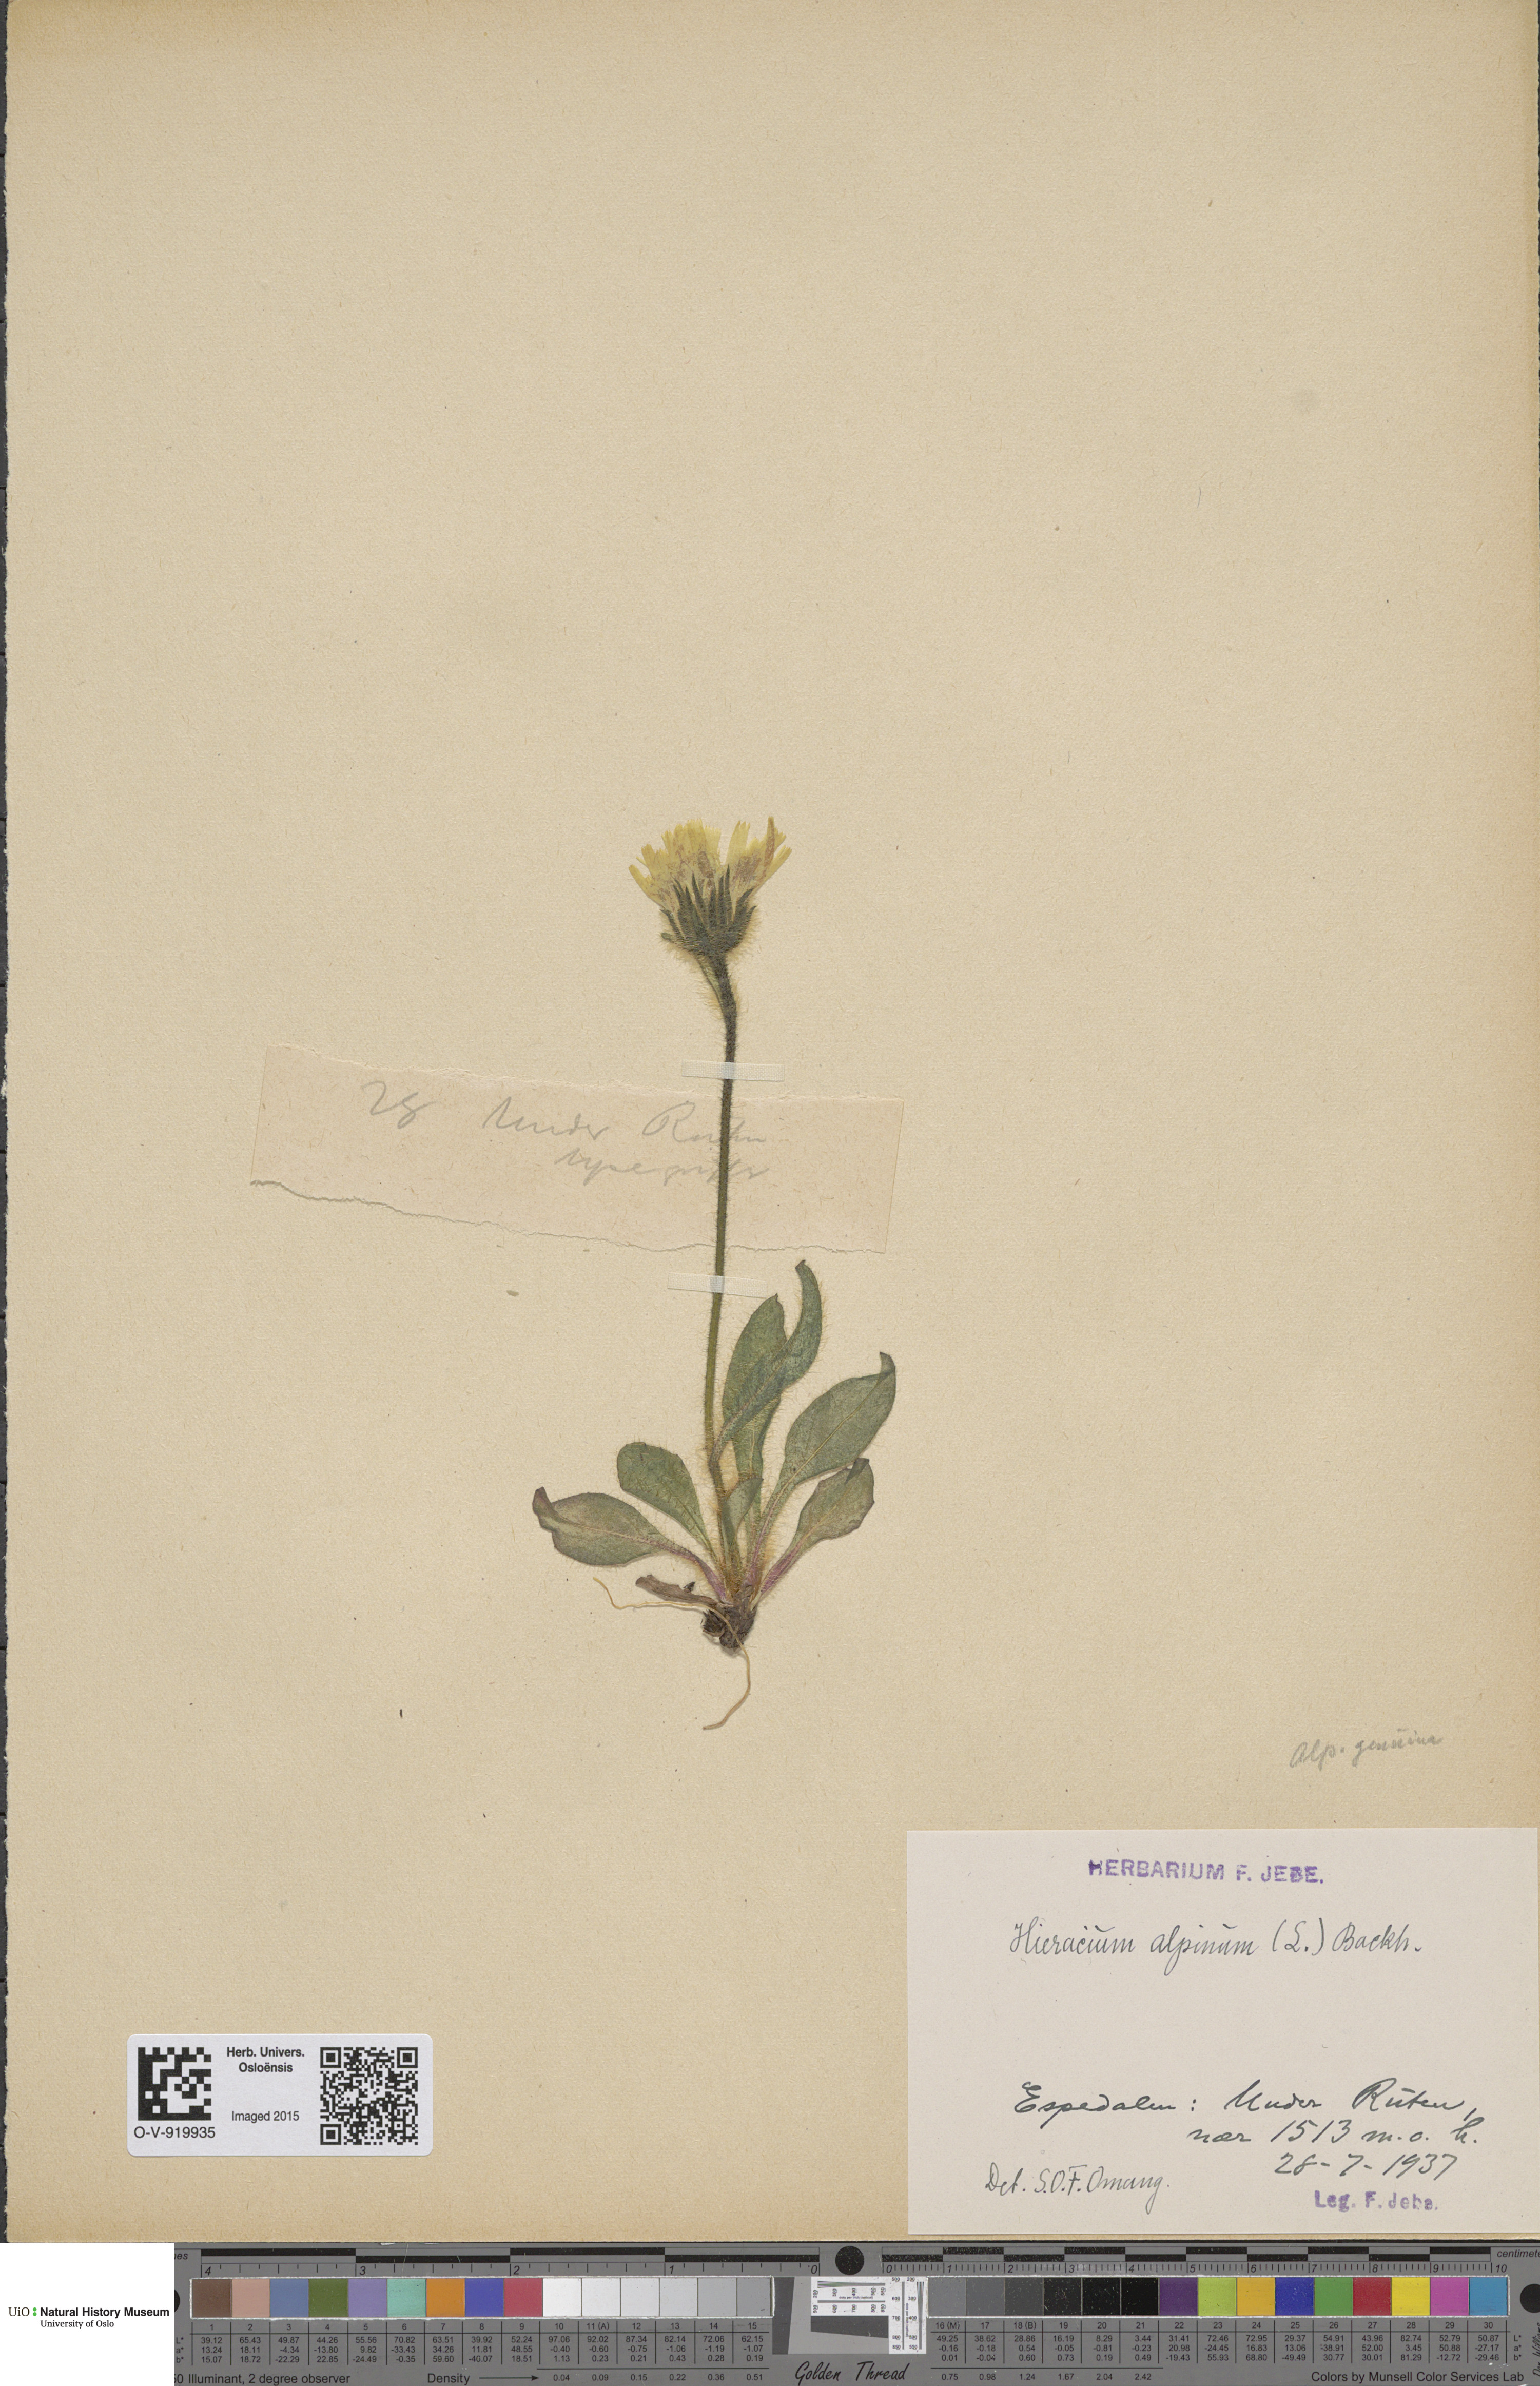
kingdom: Plantae
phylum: Tracheophyta
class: Magnoliopsida
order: Asterales
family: Asteraceae
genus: Hieracium
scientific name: Hieracium alpinum
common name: Alpine hawkweed
